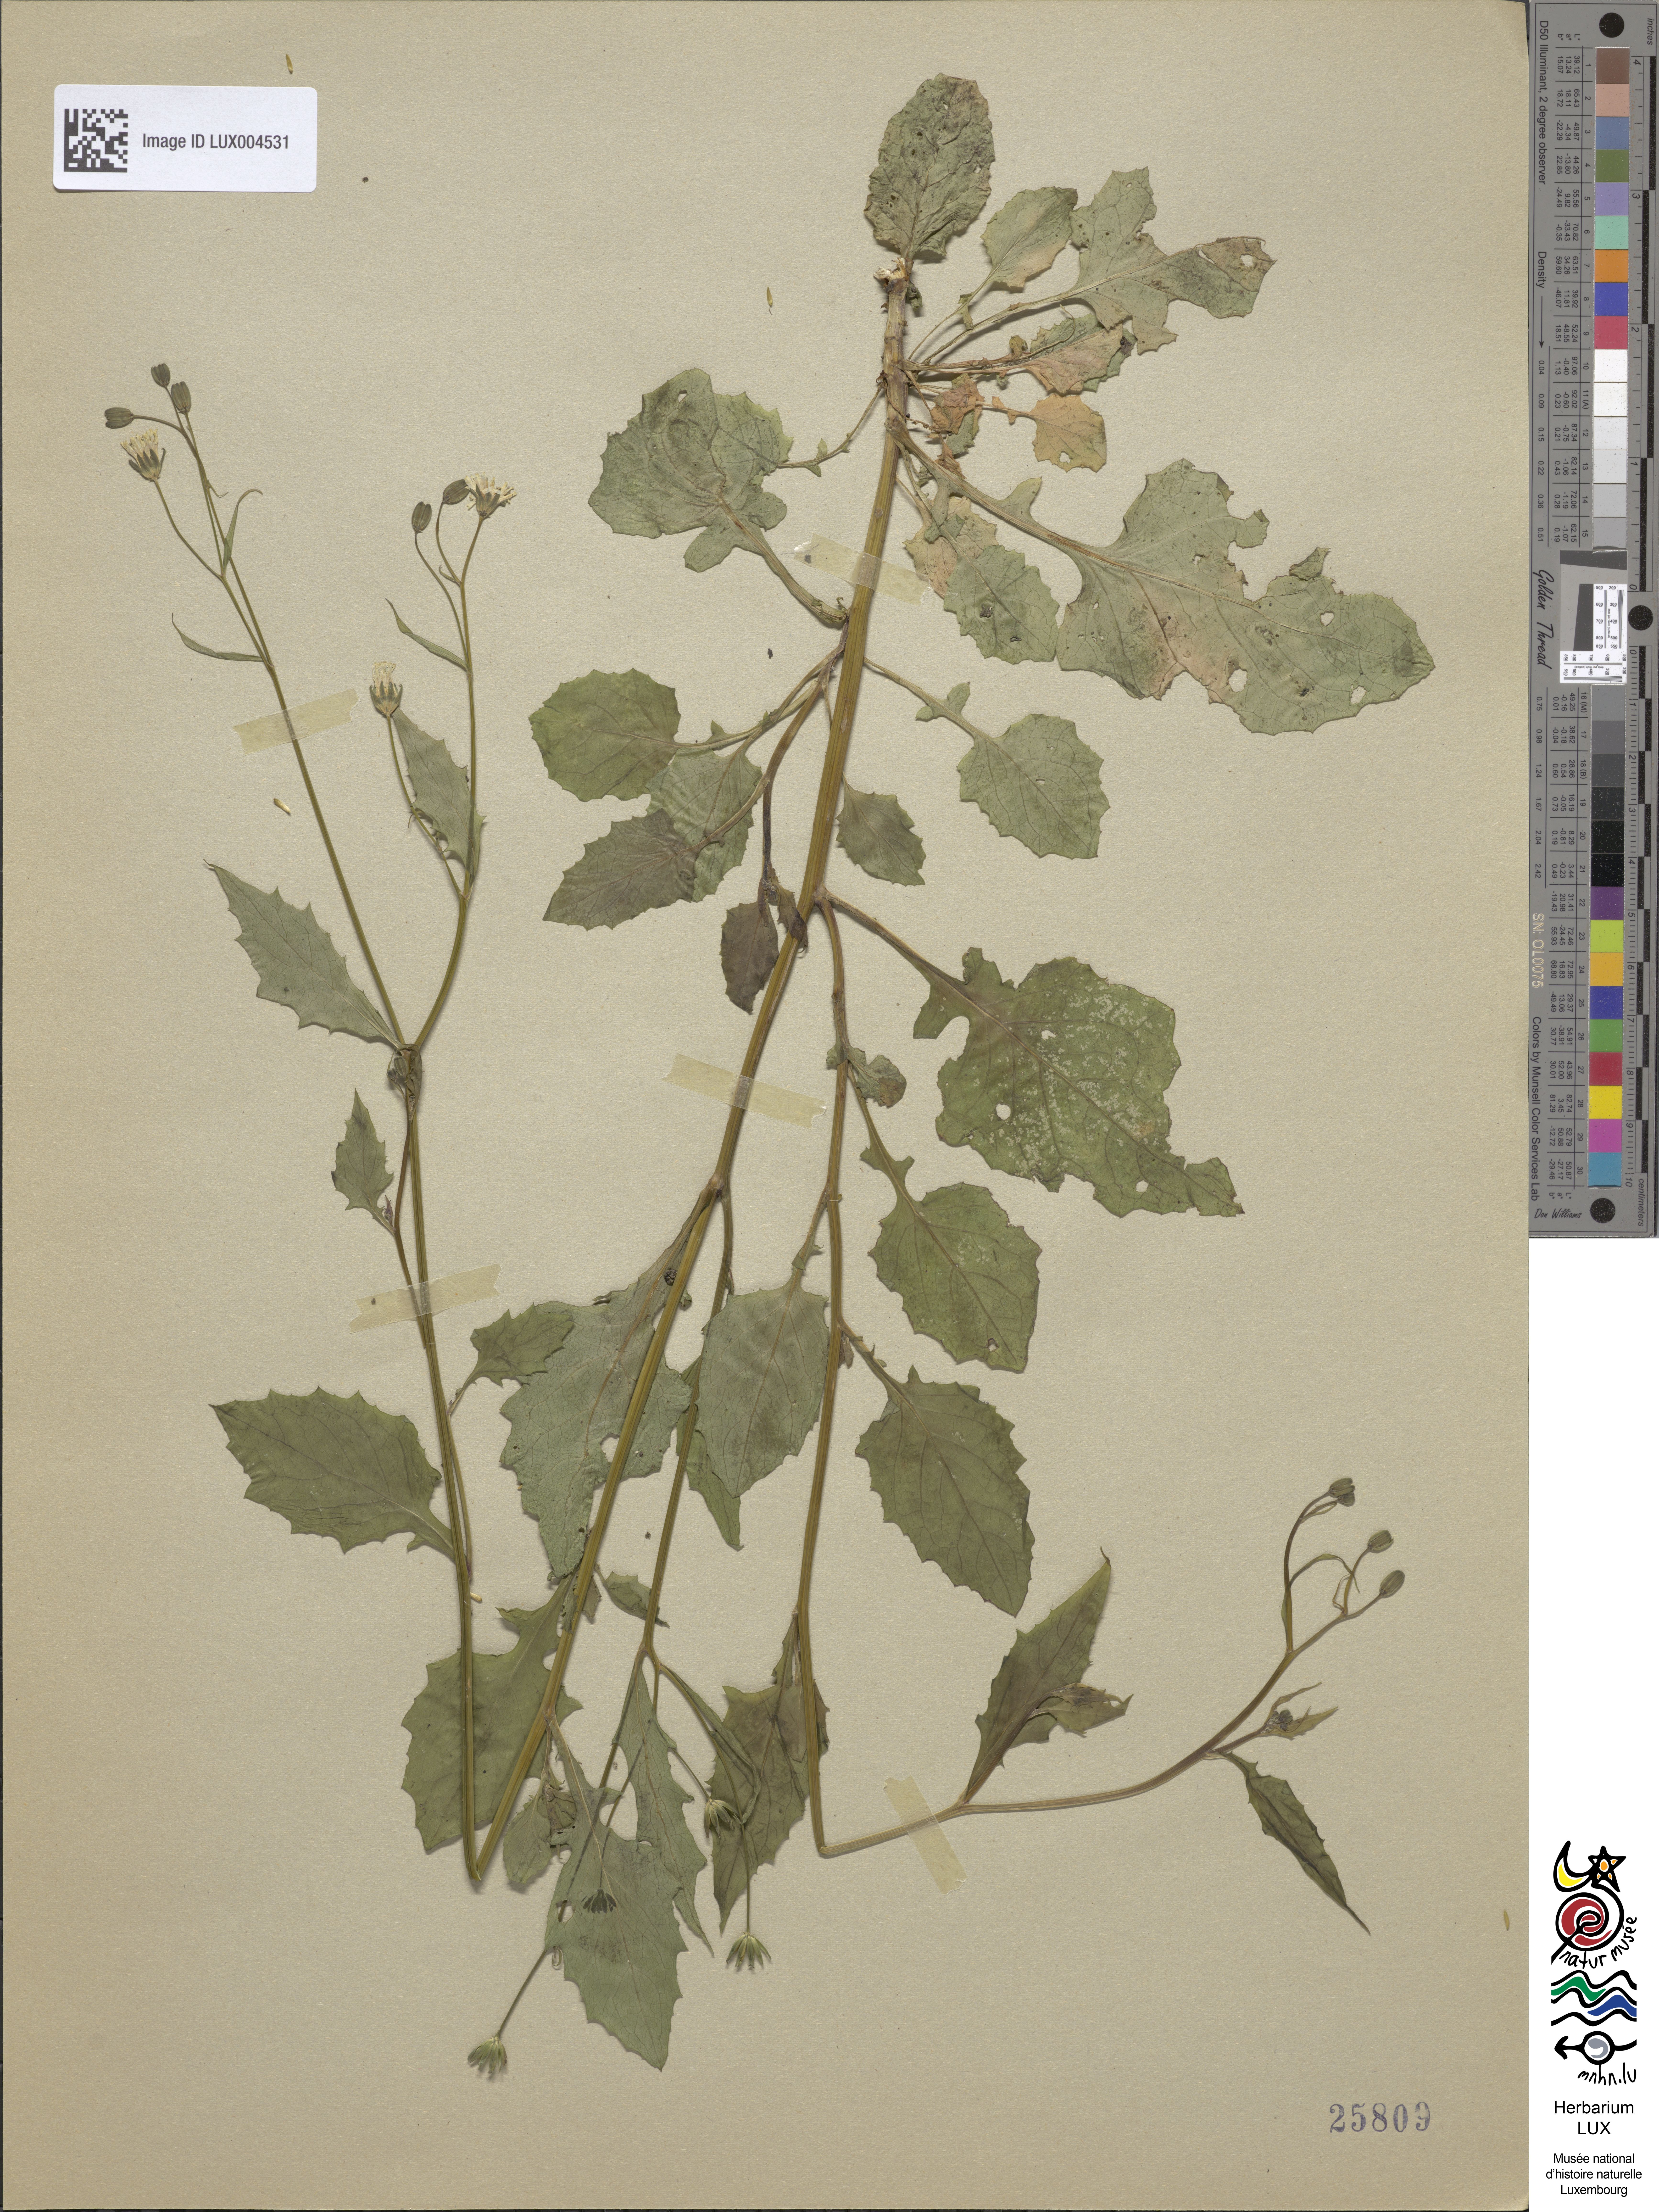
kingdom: Plantae
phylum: Tracheophyta
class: Magnoliopsida
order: Asterales
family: Asteraceae
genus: Lapsana
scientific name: Lapsana communis
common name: Nipplewort
